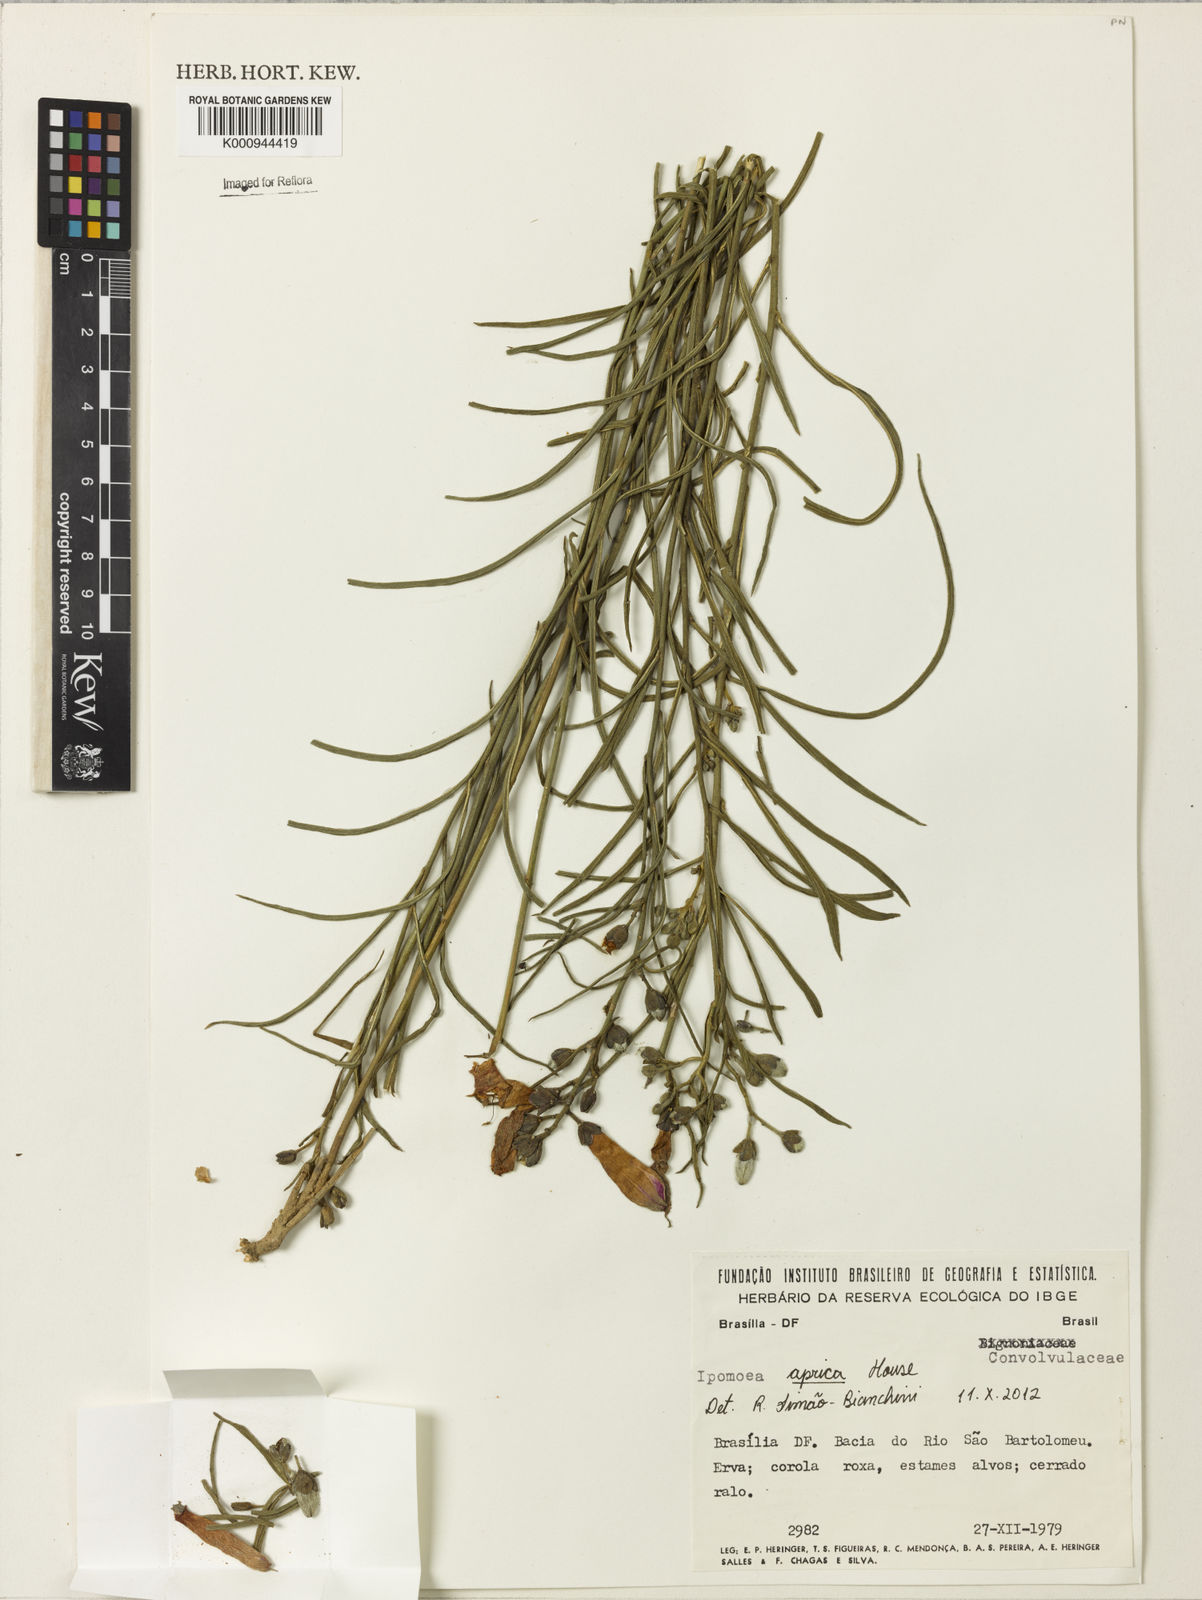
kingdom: Plantae
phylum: Tracheophyta
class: Magnoliopsida
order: Solanales
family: Convolvulaceae
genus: Ipomoea
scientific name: Ipomoea aprica
